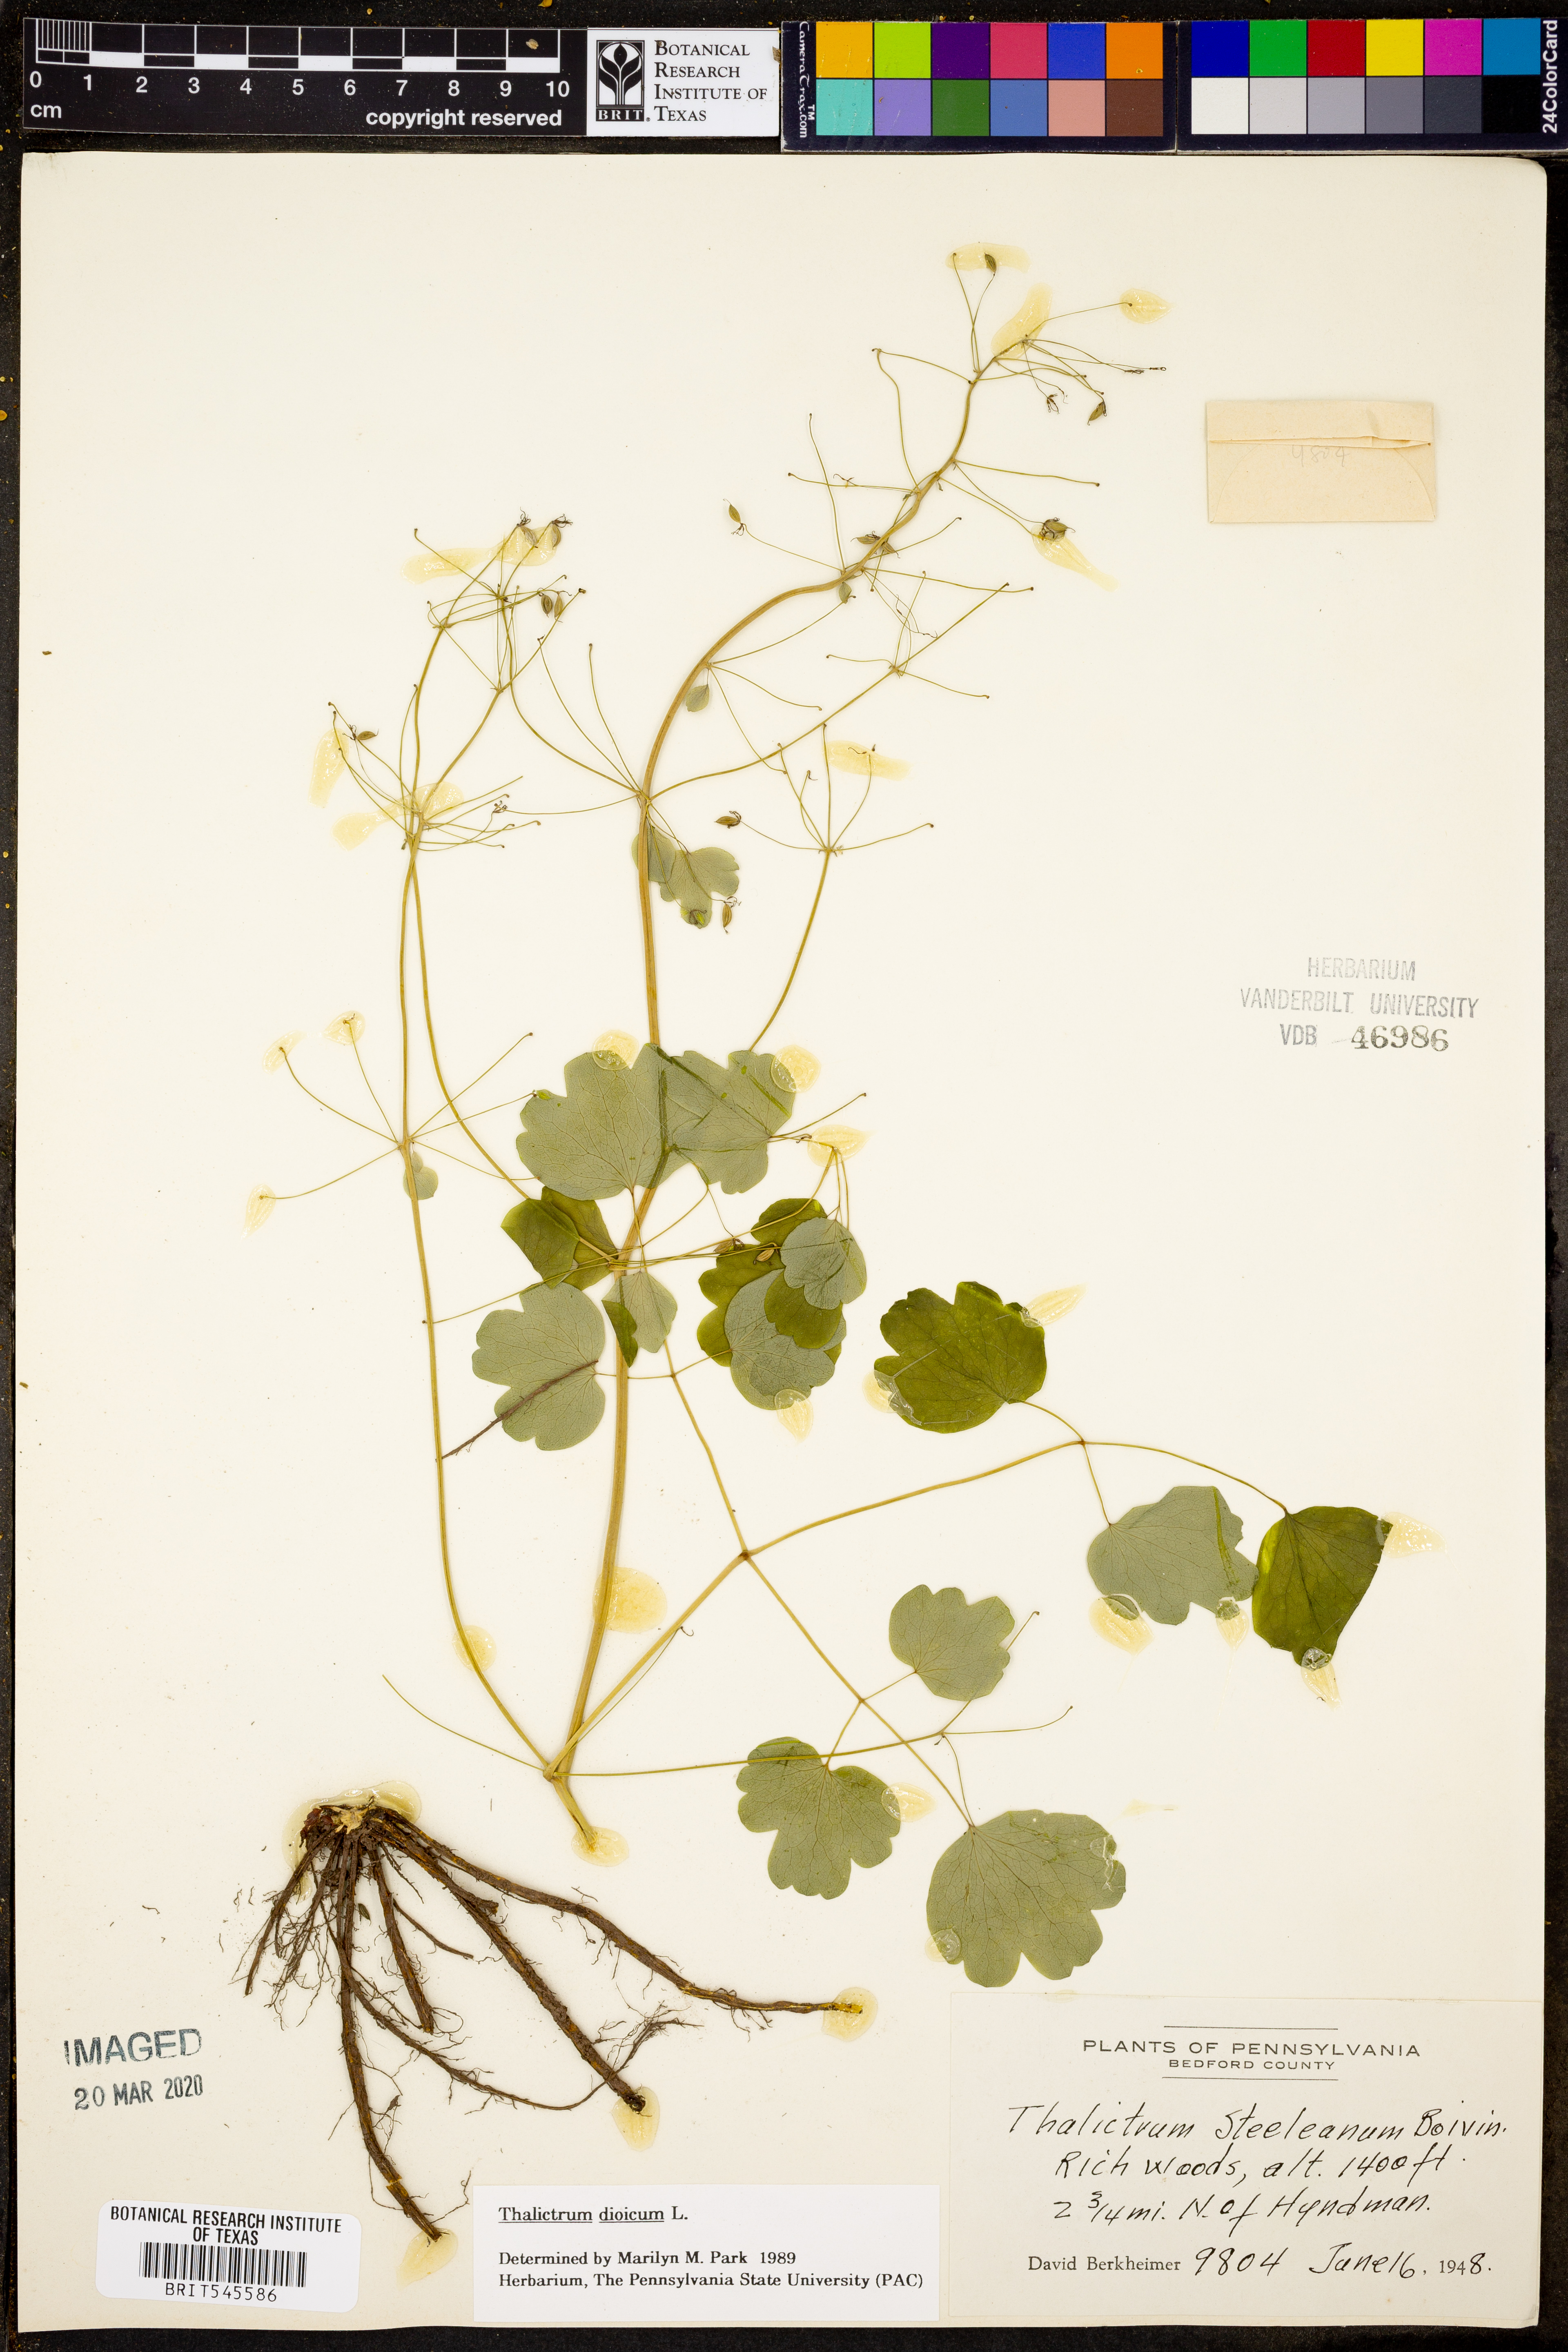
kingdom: Plantae
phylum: Tracheophyta
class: Magnoliopsida
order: Ranunculales
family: Ranunculaceae
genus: Thalictrum
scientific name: Thalictrum dioicum
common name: Early meadow-rue
